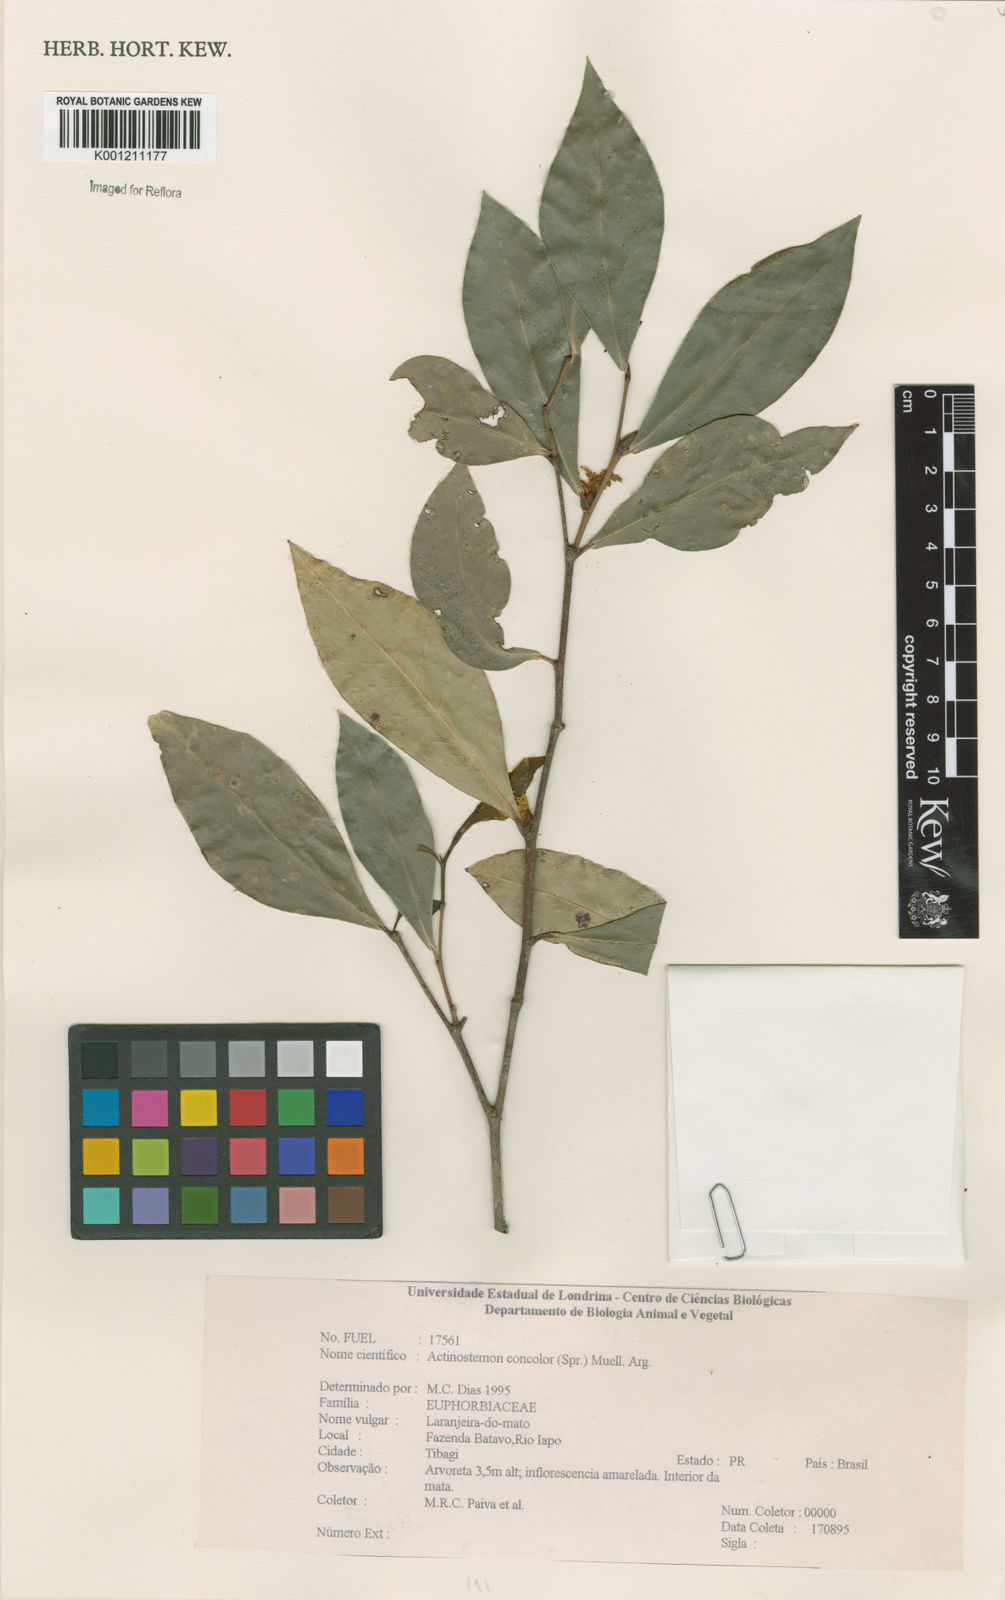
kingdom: Plantae
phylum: Tracheophyta
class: Magnoliopsida
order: Malpighiales
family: Euphorbiaceae
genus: Actinostemon
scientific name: Actinostemon
